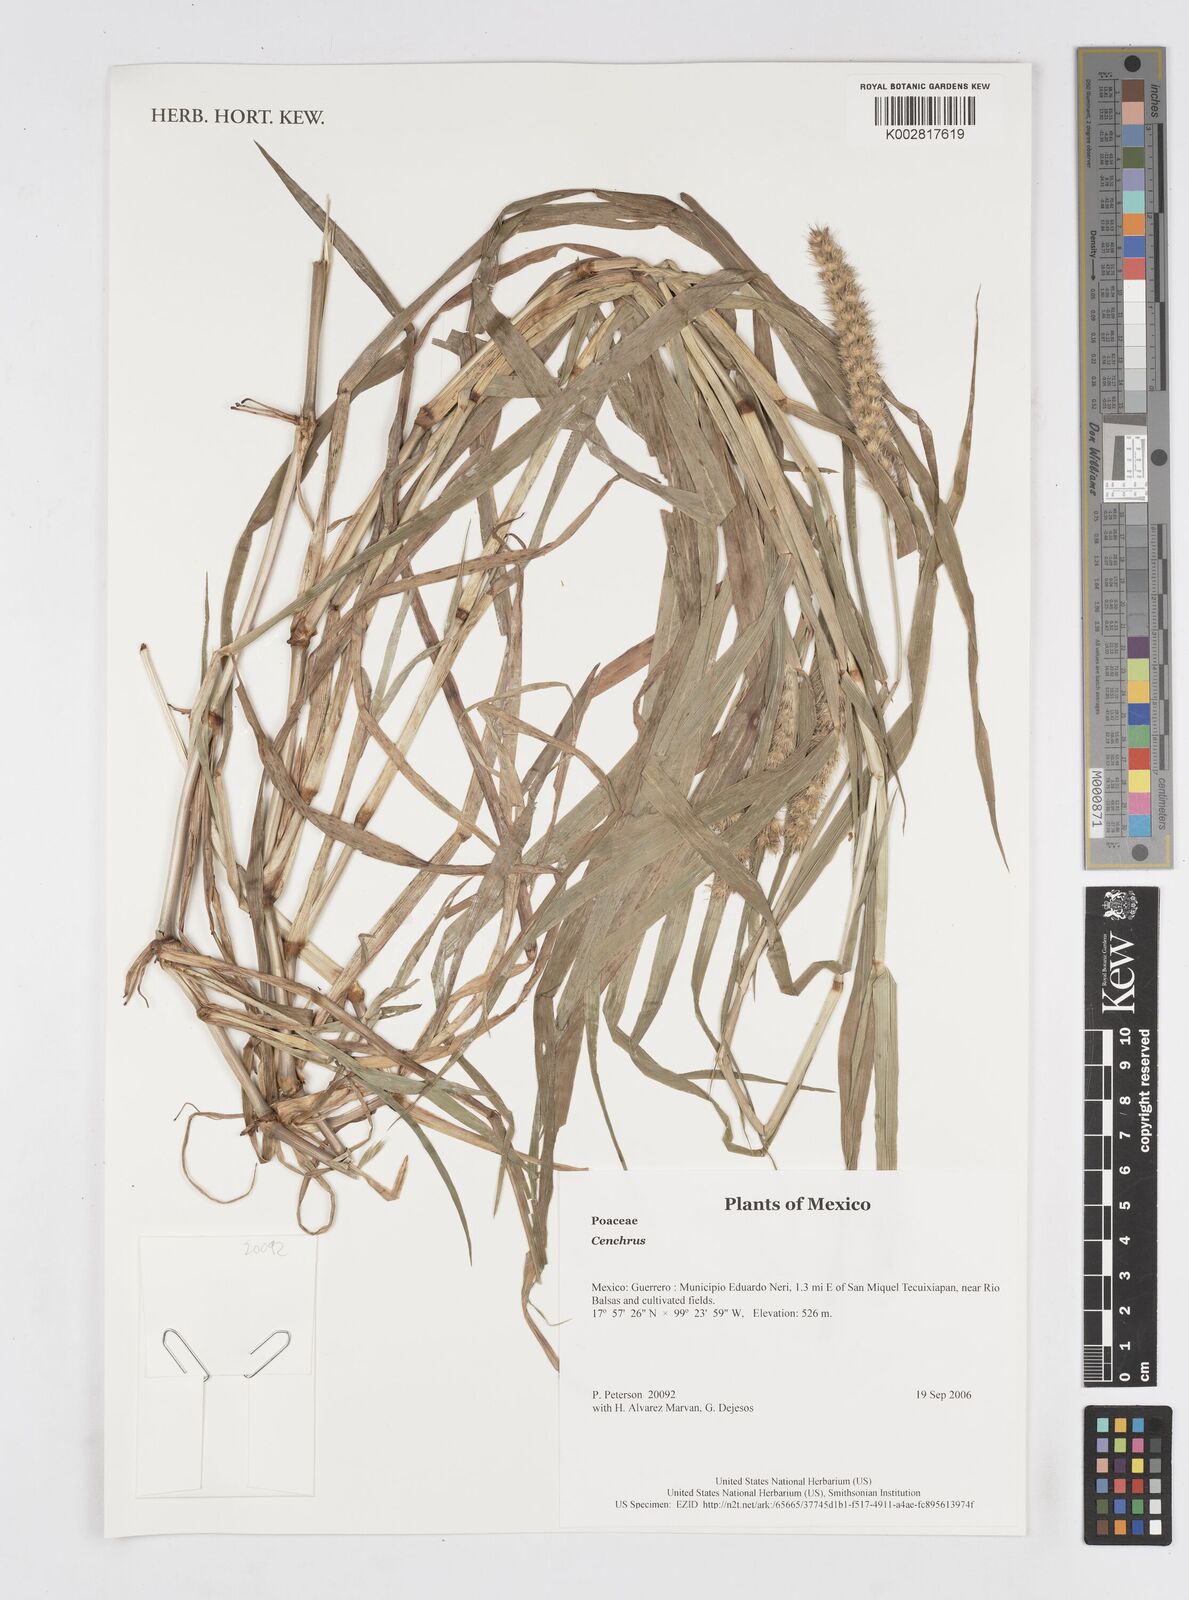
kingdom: Plantae
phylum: Tracheophyta
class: Liliopsida
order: Poales
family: Poaceae
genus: Cenchrus
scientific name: Cenchrus
